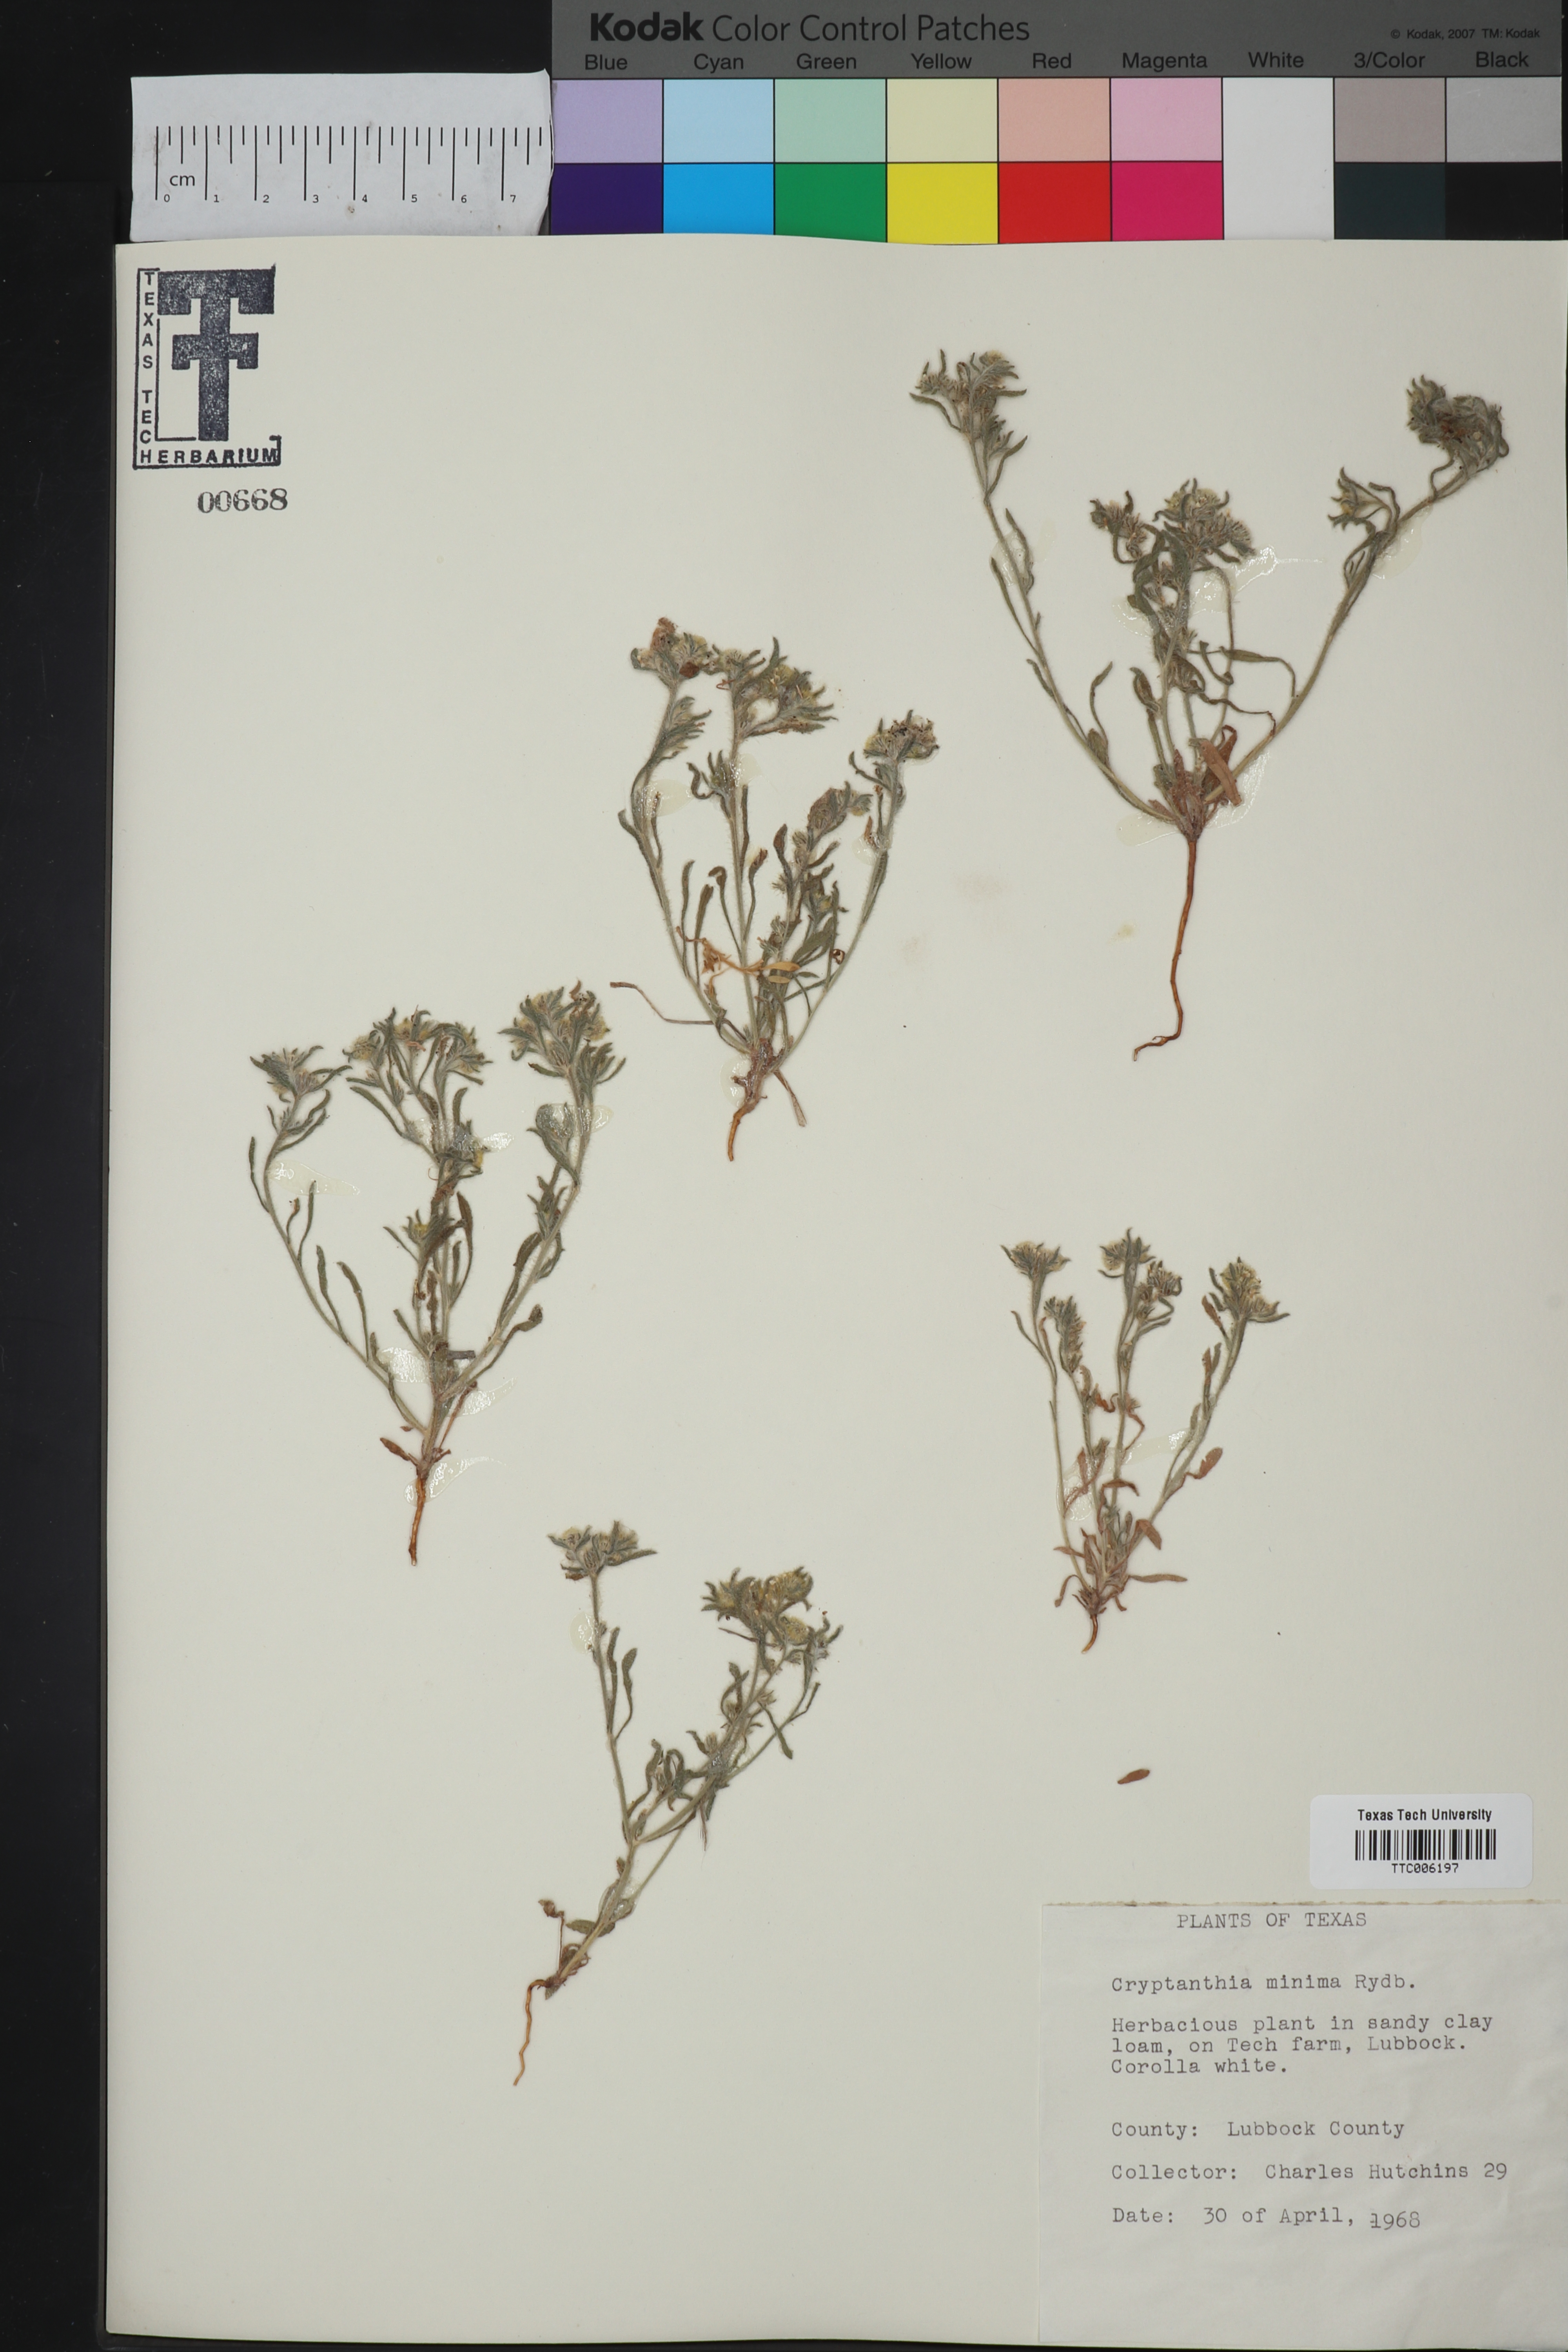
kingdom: Plantae
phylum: Tracheophyta
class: Magnoliopsida
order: Boraginales
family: Boraginaceae
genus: Cryptantha
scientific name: Cryptantha minima
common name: Little cat's-eye
